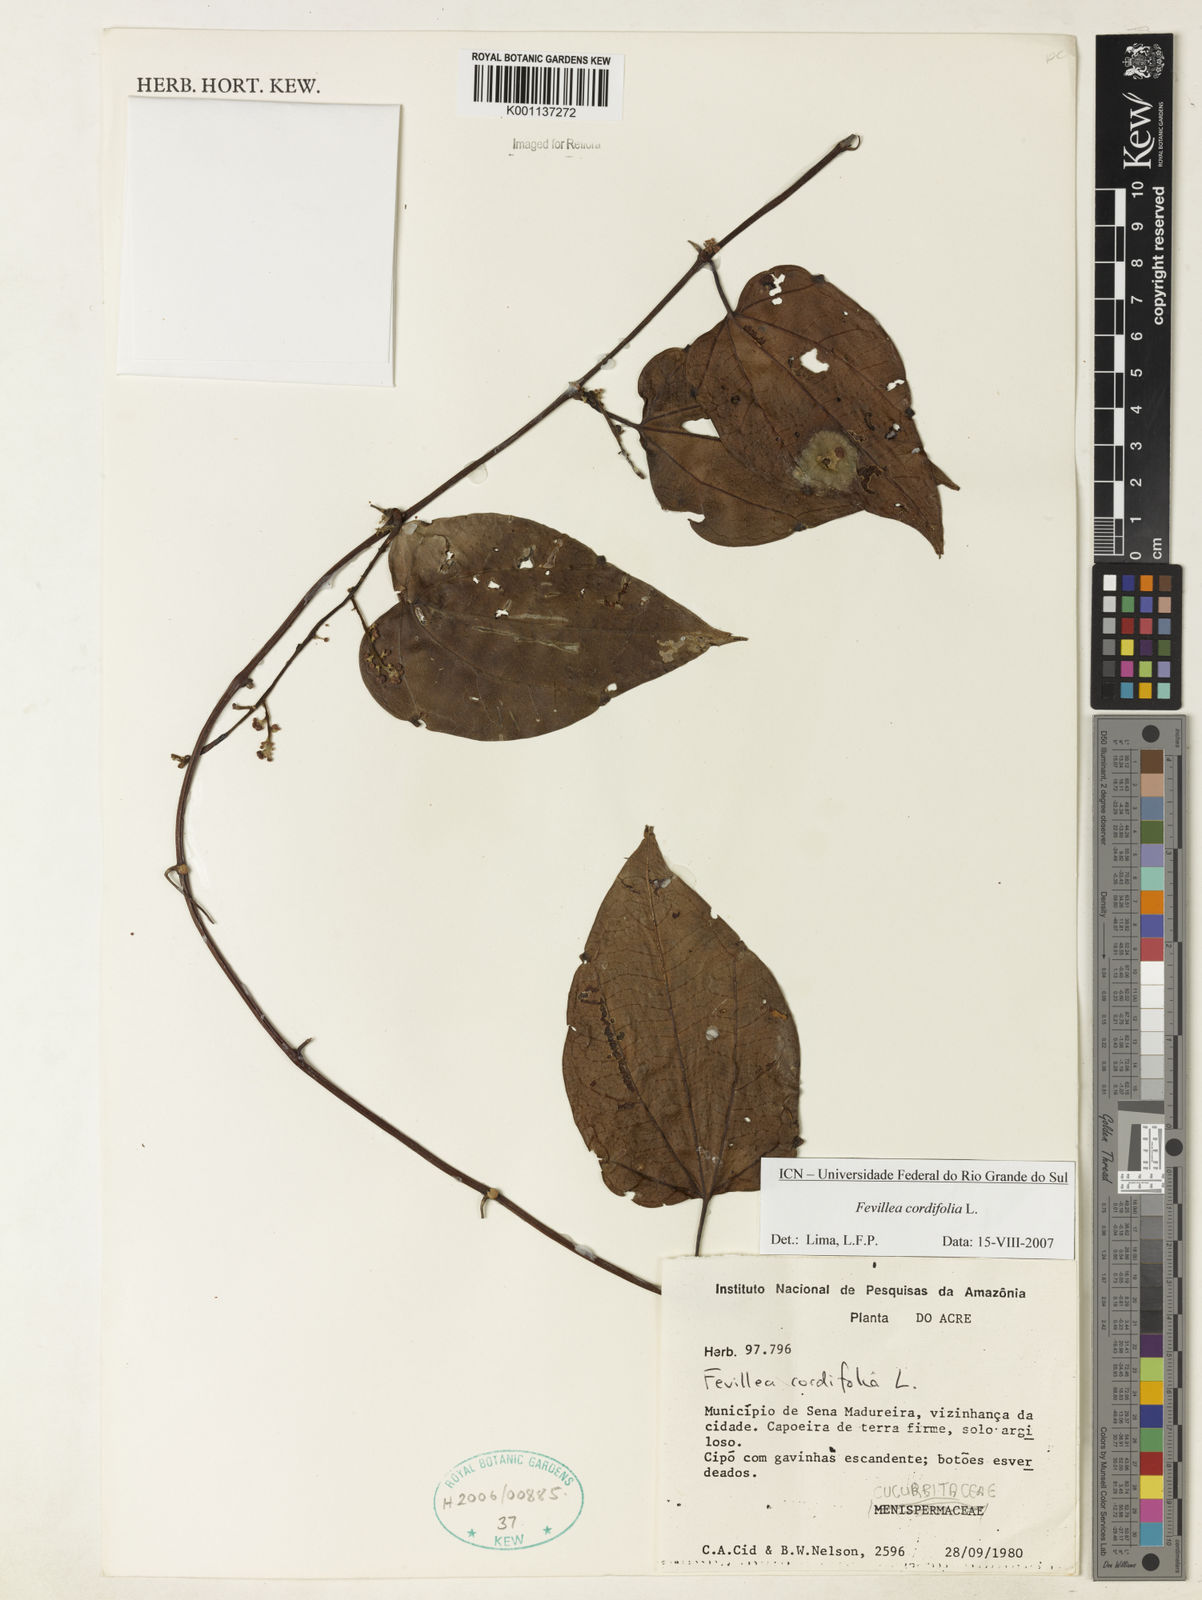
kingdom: Plantae
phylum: Tracheophyta
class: Magnoliopsida
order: Cucurbitales
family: Cucurbitaceae
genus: Fevillea
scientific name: Fevillea cordifolia
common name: Antidote-vine
